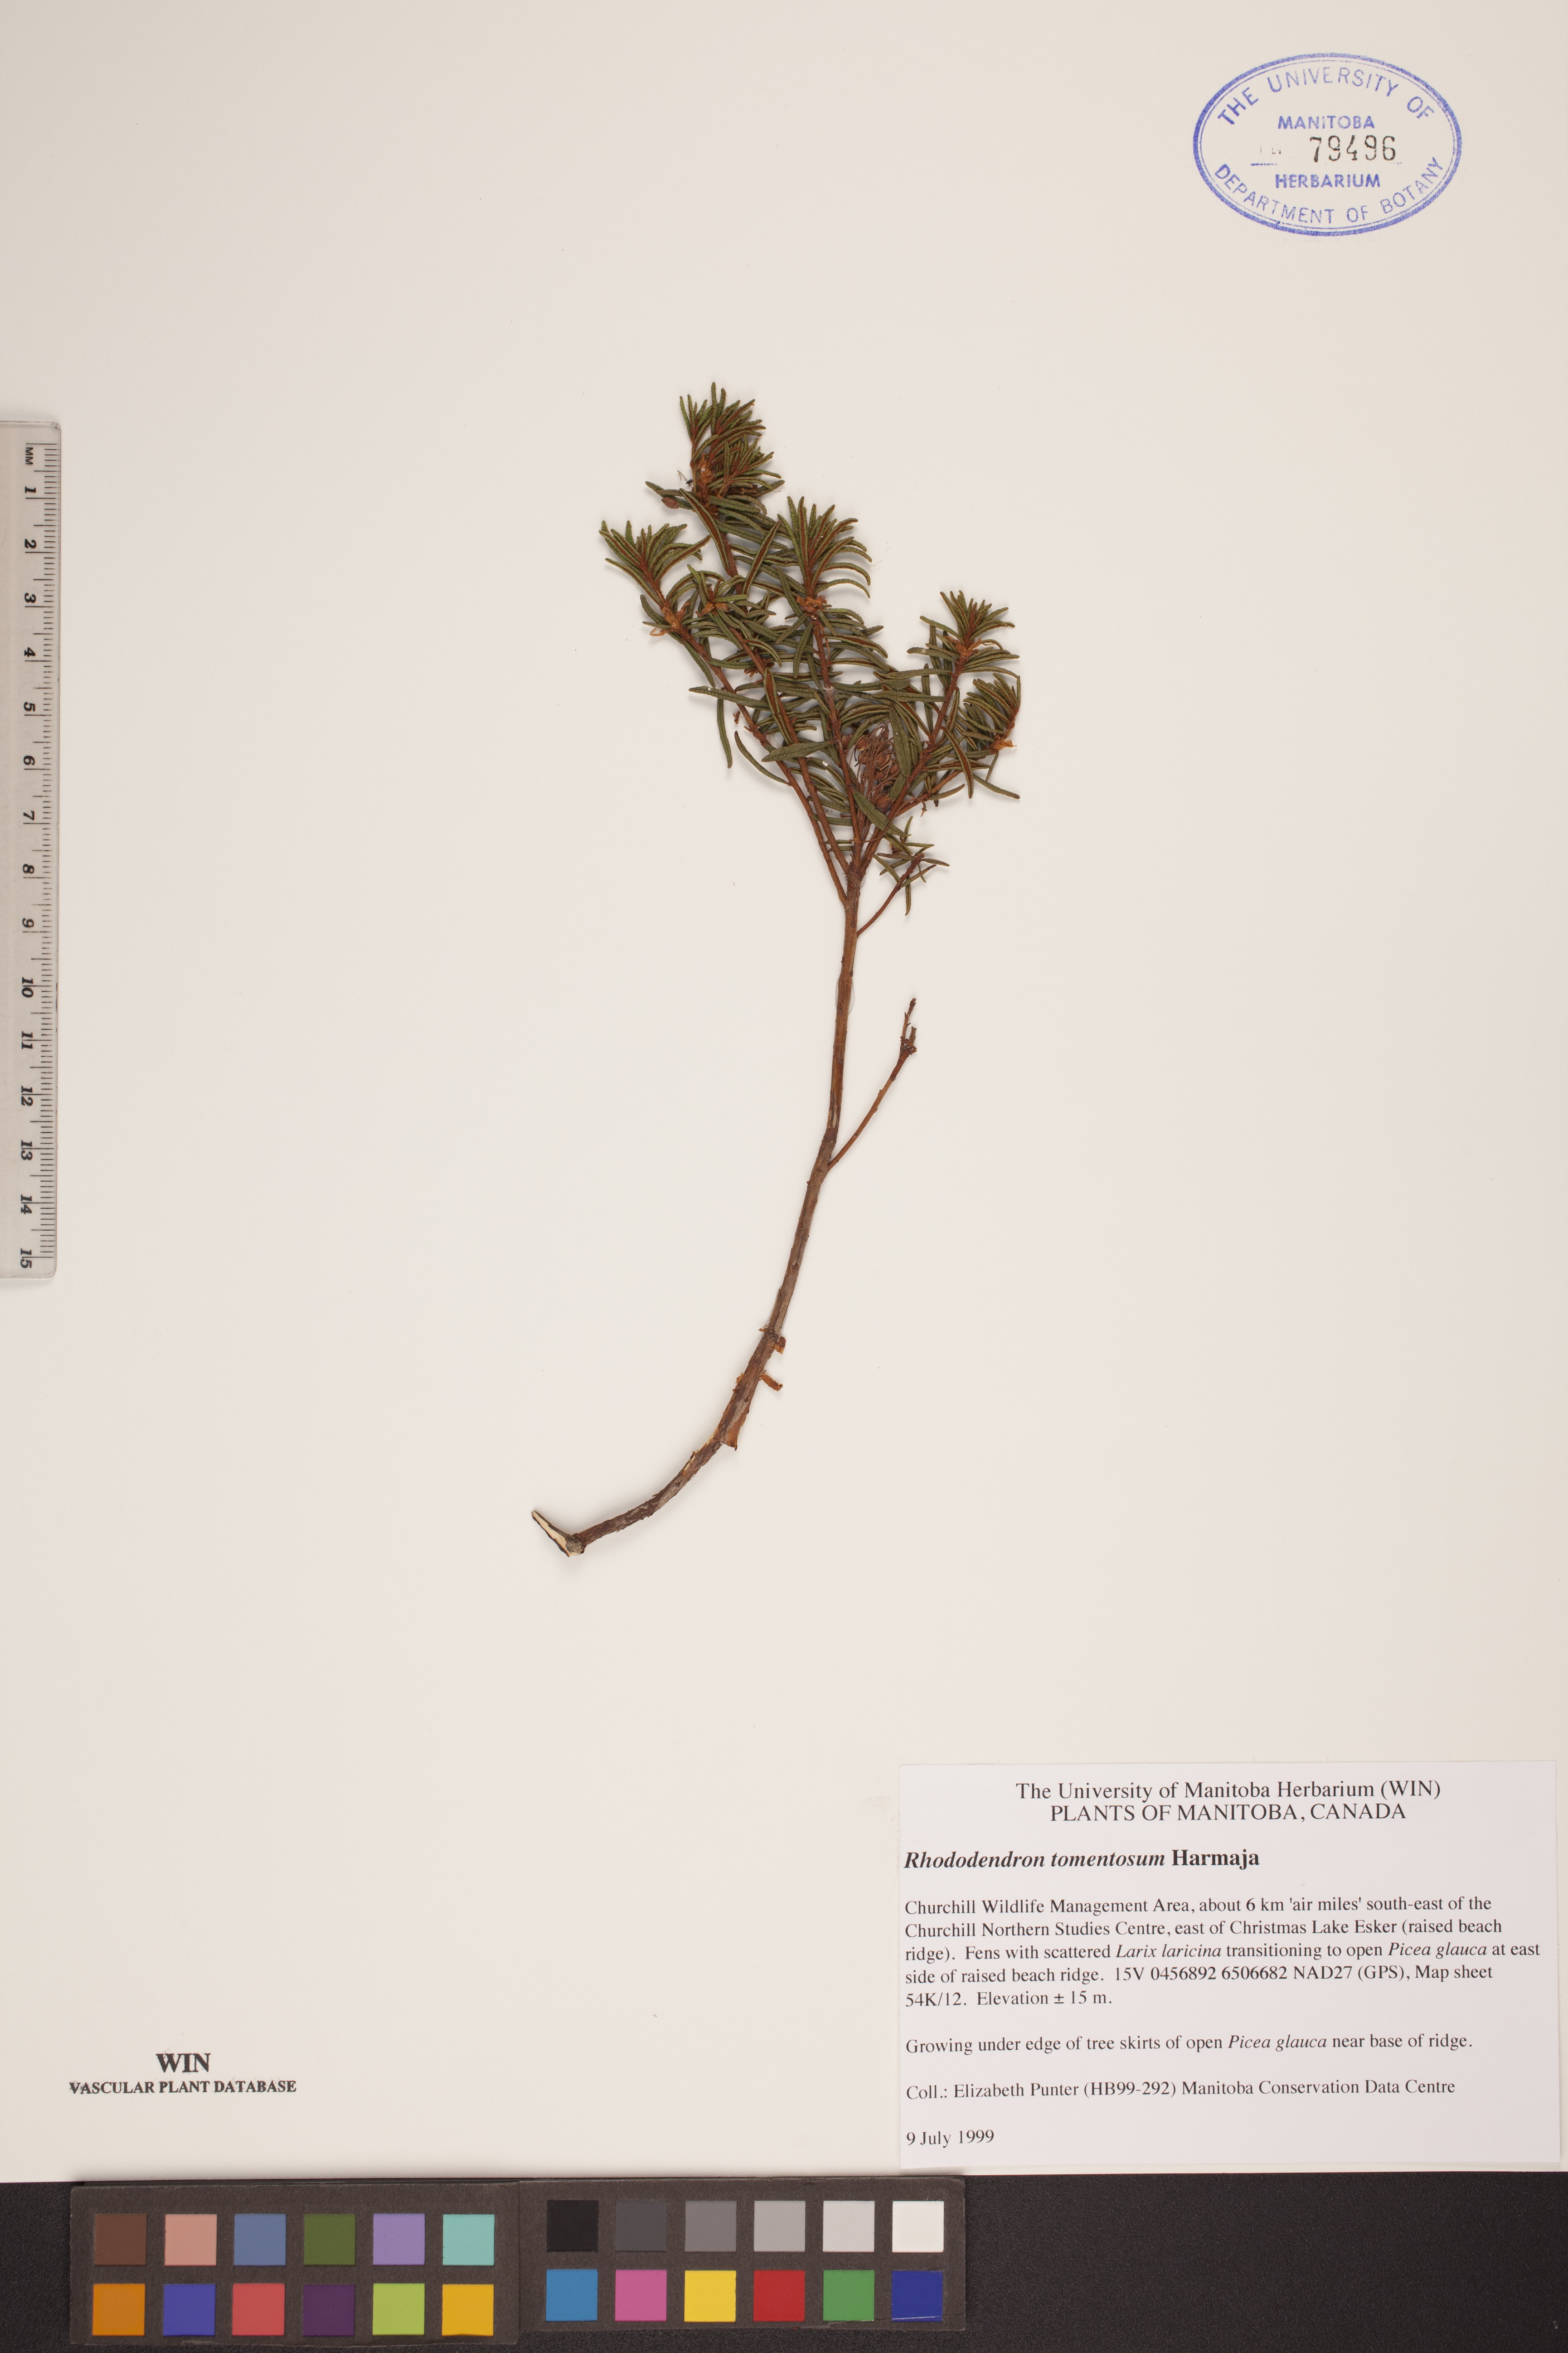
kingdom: Plantae
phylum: Tracheophyta
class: Magnoliopsida
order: Ericales
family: Ericaceae
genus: Rhododendron
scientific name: Rhododendron tomentosum
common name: Marsh labrador tea
